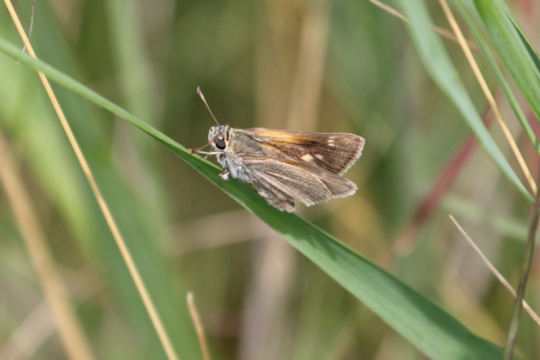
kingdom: Animalia
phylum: Arthropoda
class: Insecta
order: Lepidoptera
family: Hesperiidae
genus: Polites
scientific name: Polites themistocles
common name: Tawny-edged Skipper
